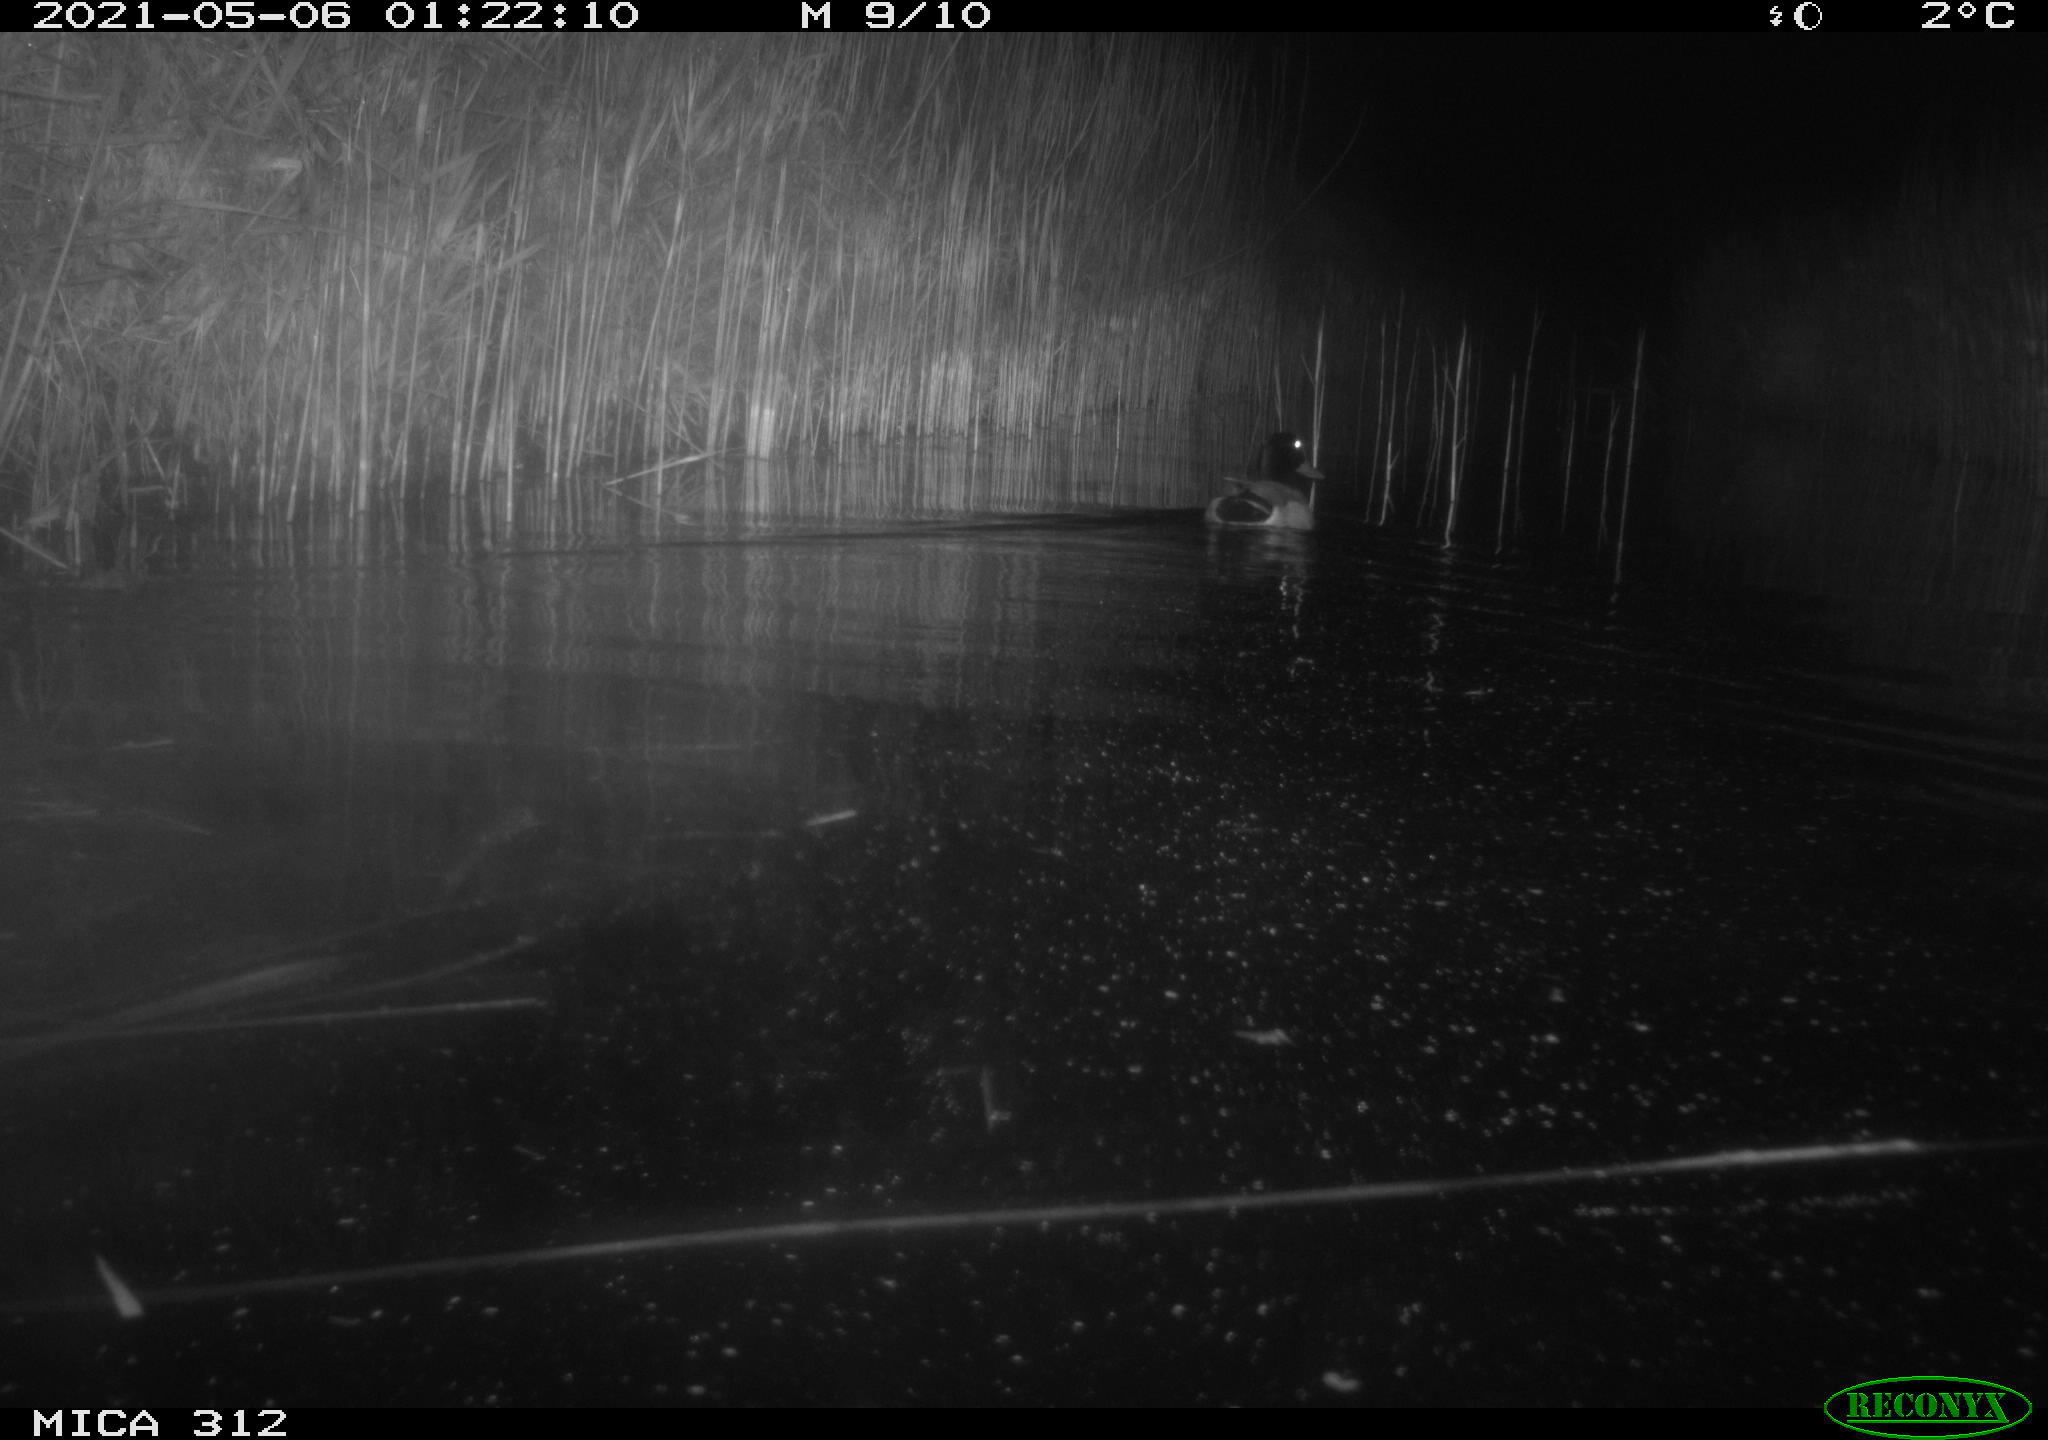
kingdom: Animalia
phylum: Chordata
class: Aves
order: Anseriformes
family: Anatidae
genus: Anas
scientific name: Anas platyrhynchos
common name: Mallard
